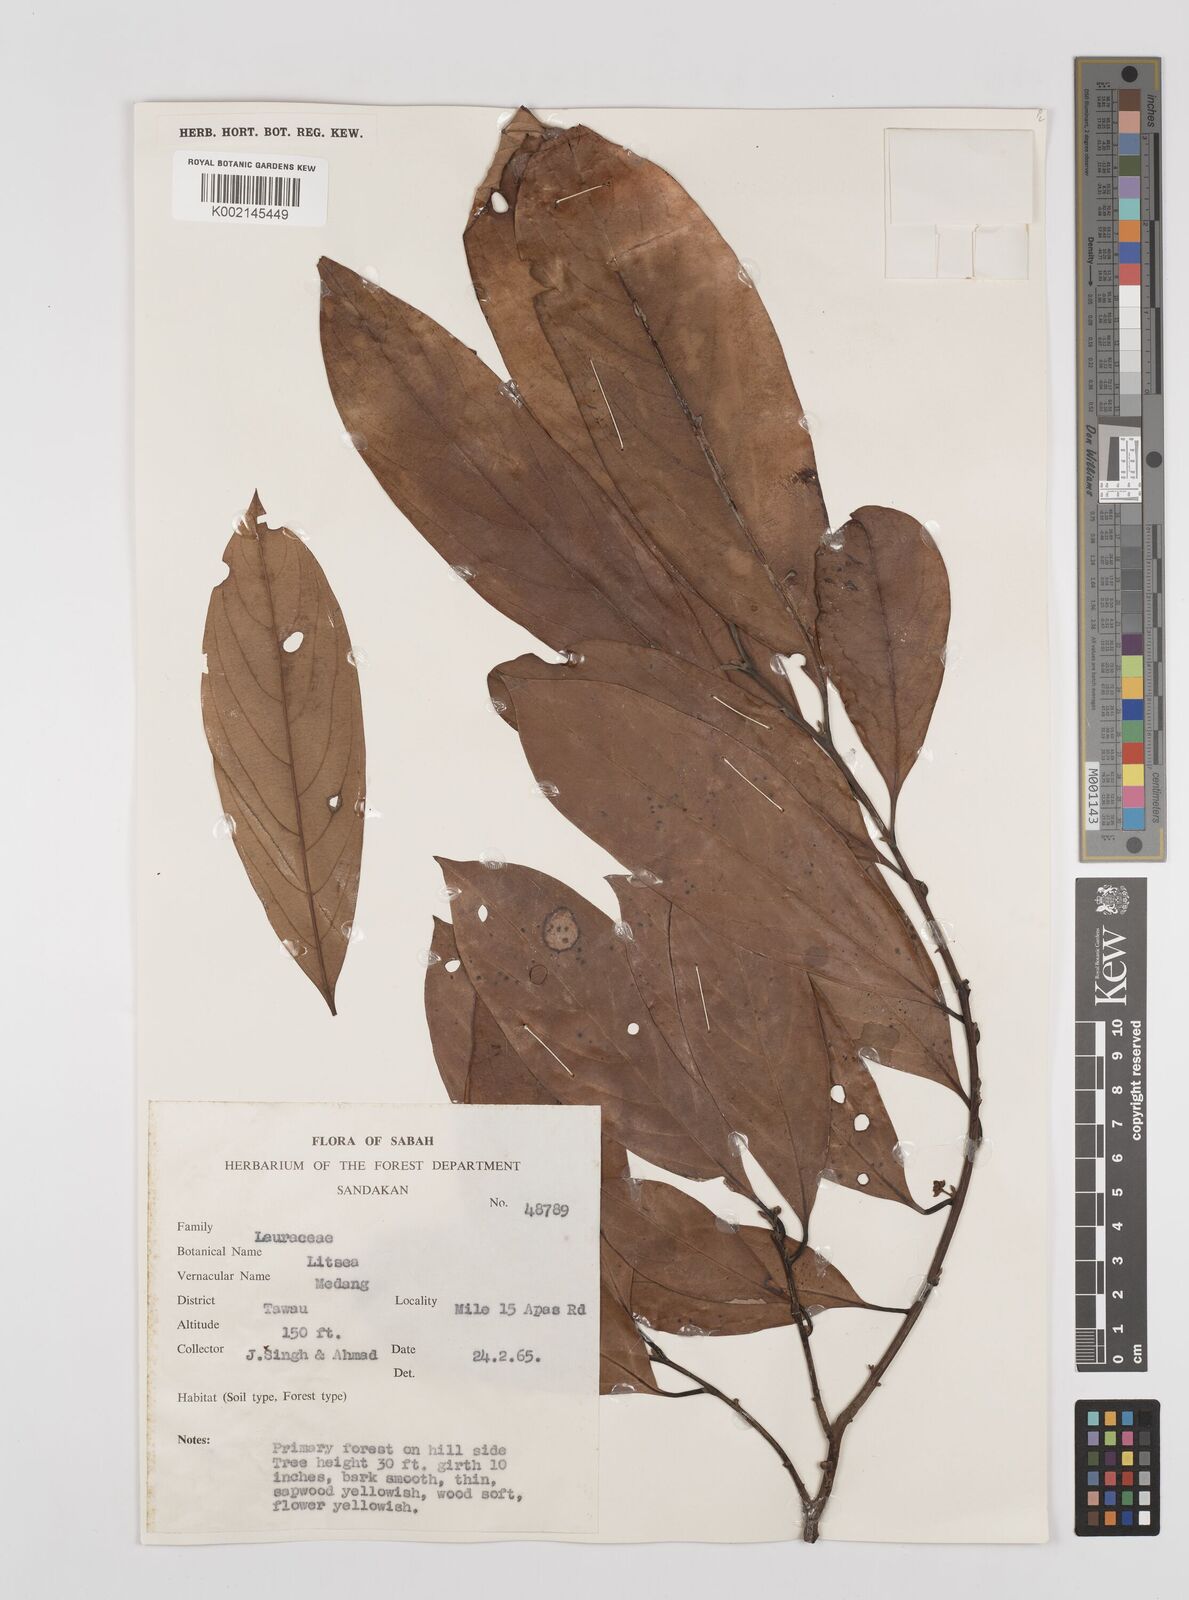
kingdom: Plantae
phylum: Tracheophyta
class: Magnoliopsida
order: Laurales
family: Lauraceae
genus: Litsea
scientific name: Litsea
